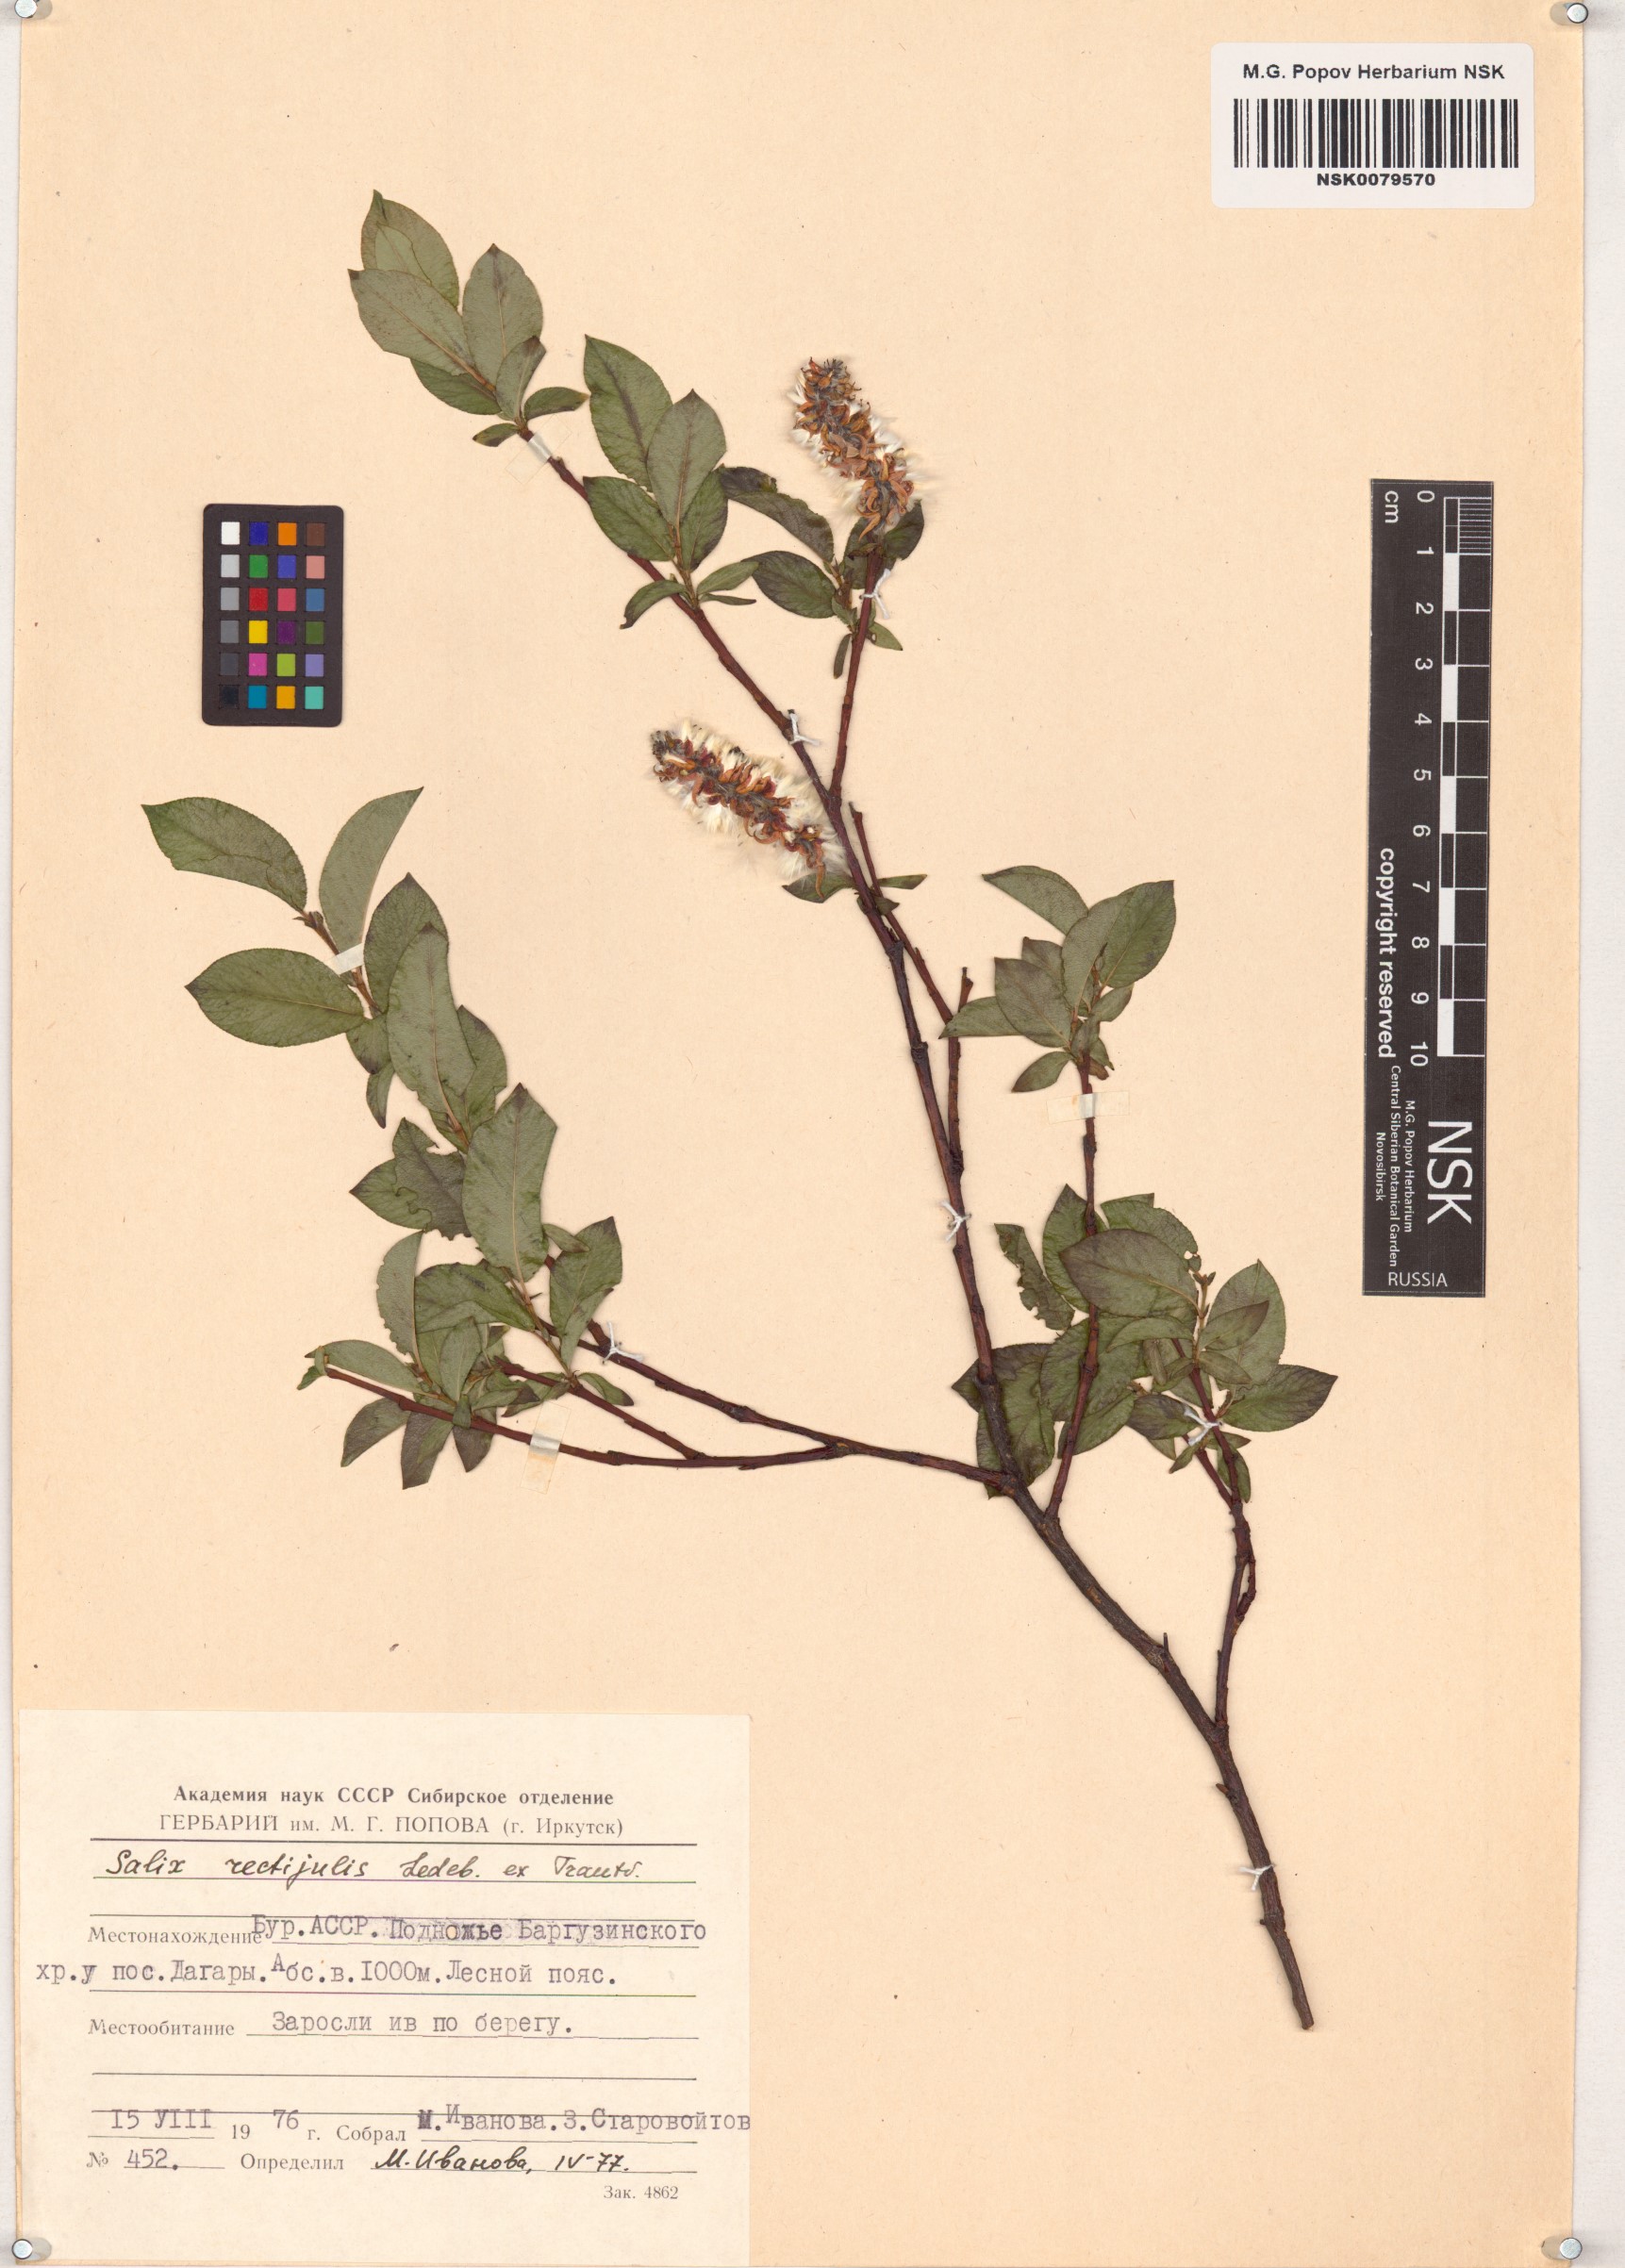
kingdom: Plantae
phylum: Tracheophyta
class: Magnoliopsida
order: Malpighiales
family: Salicaceae
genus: Salix
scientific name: Salix rectijulis
